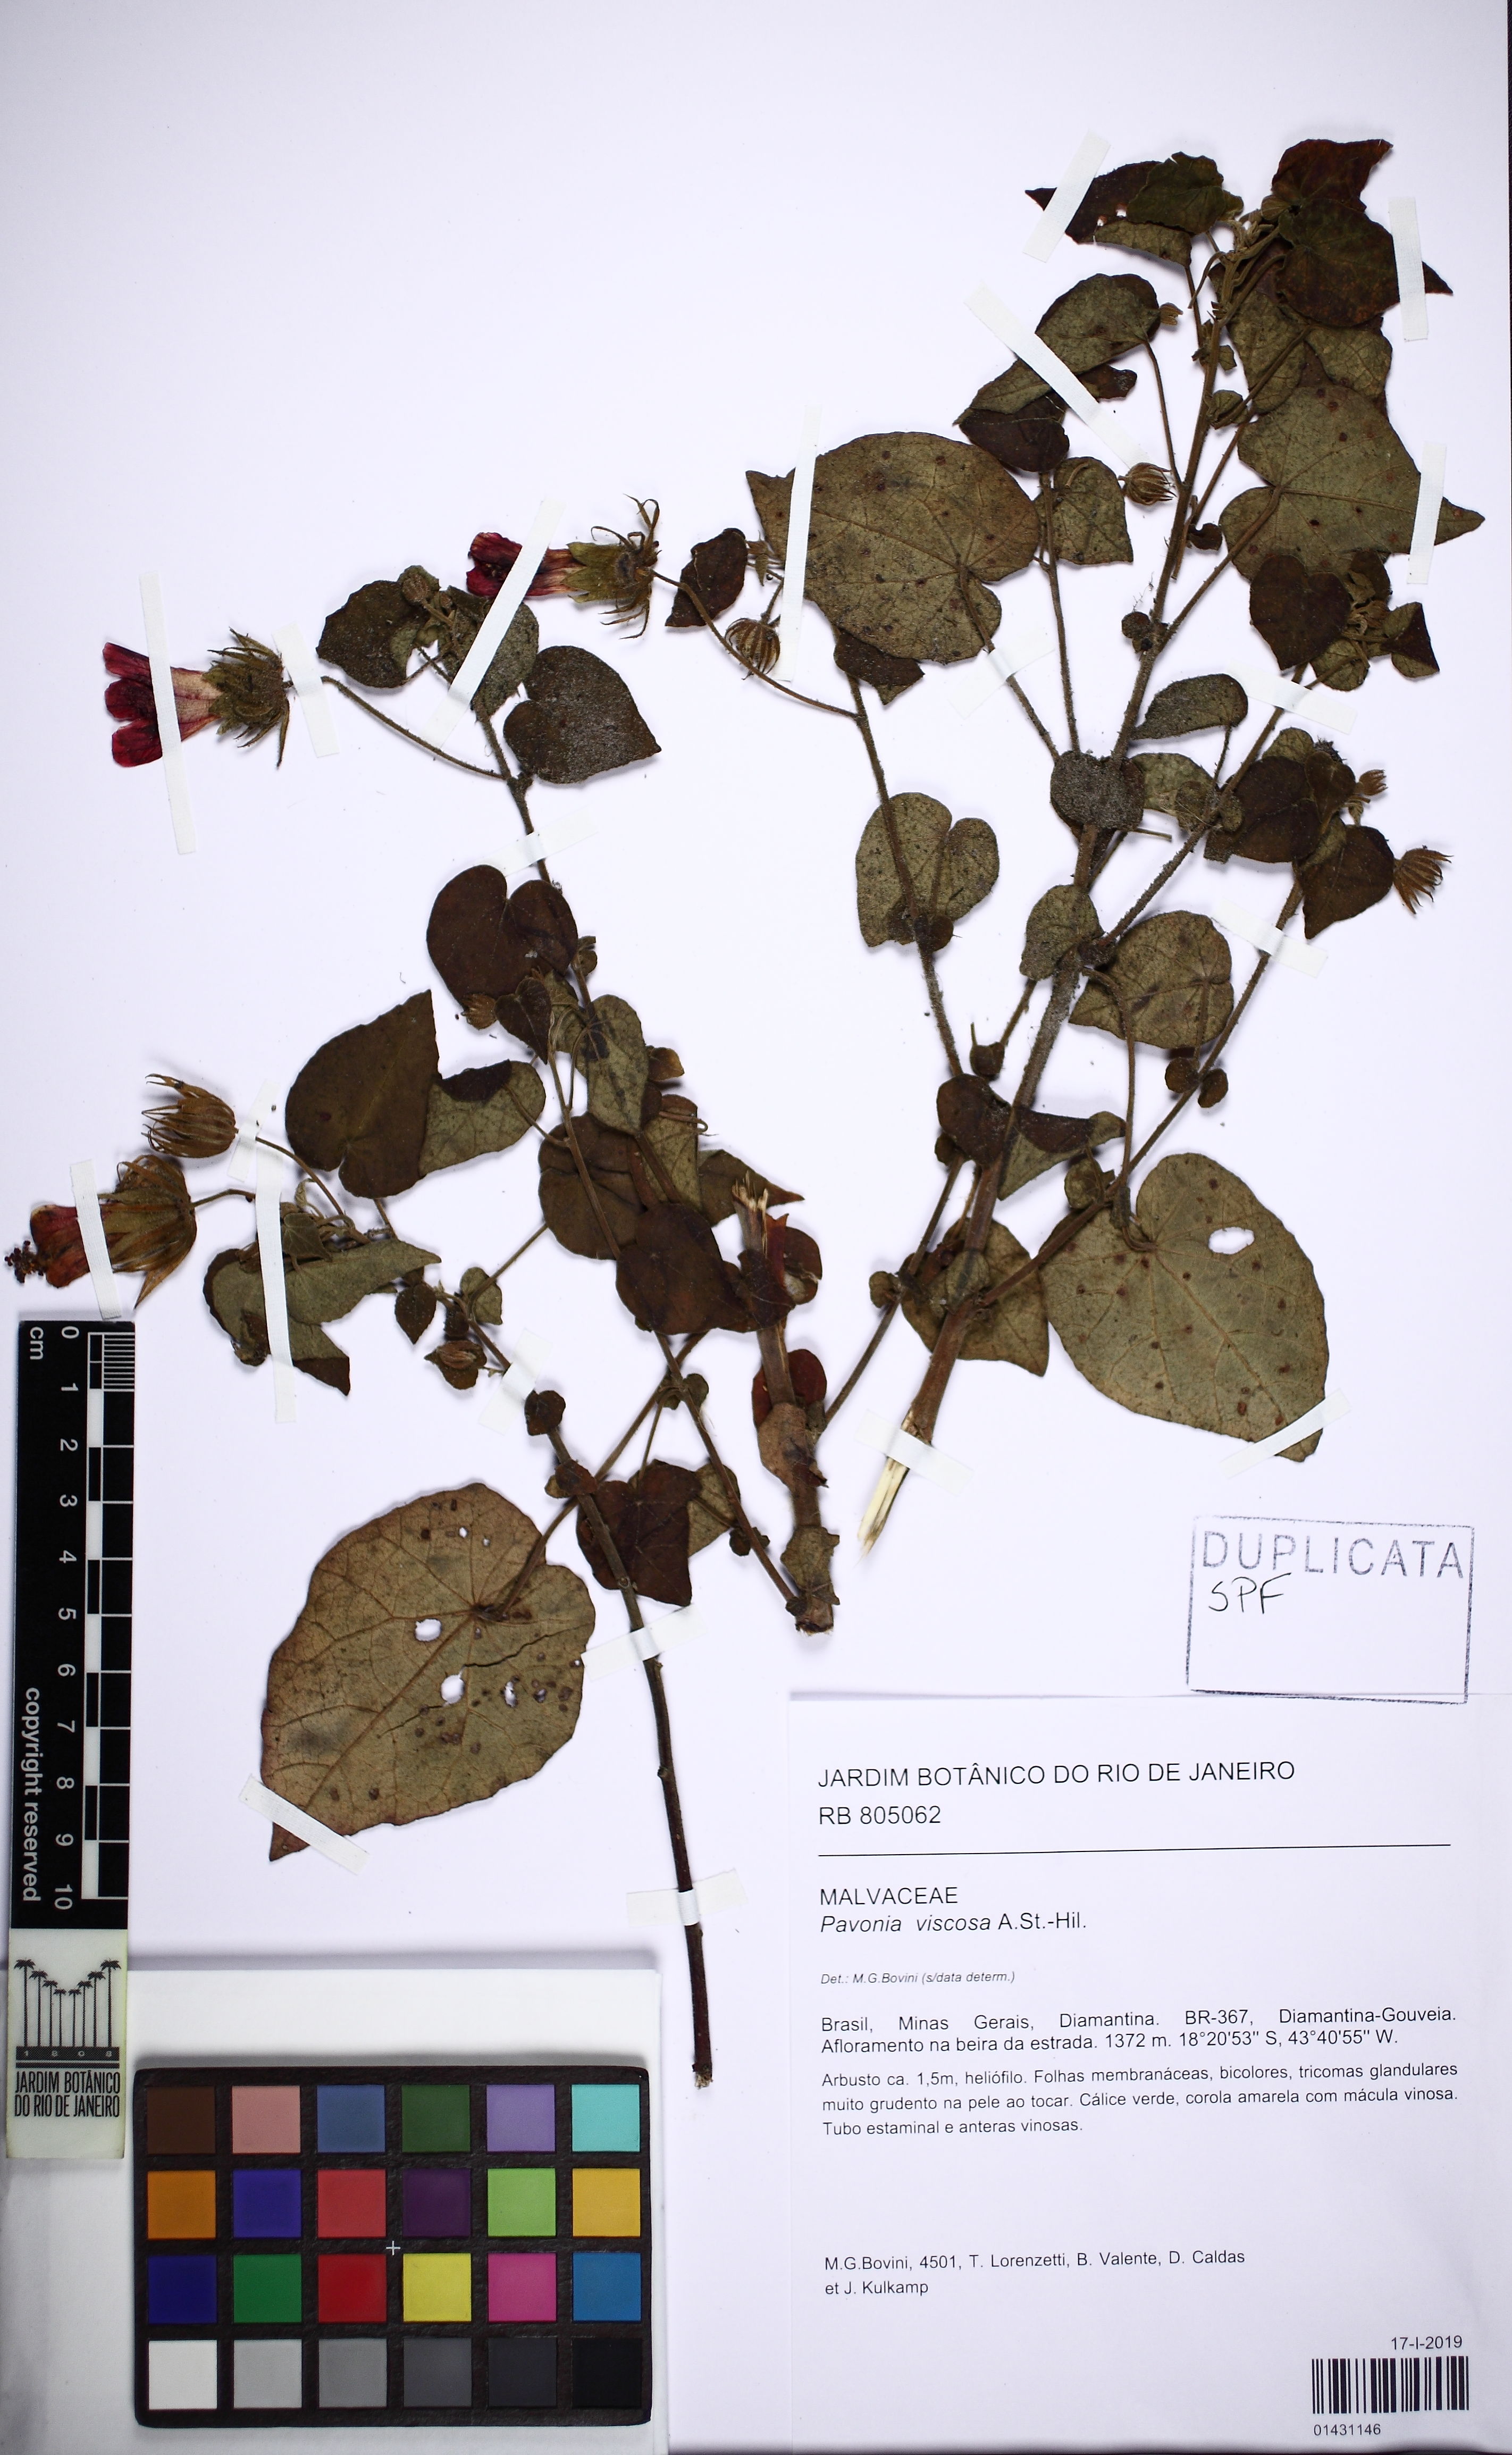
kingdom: Plantae
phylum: Tracheophyta
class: Magnoliopsida
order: Malvales
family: Malvaceae
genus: Pavonia
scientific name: Pavonia viscosa
